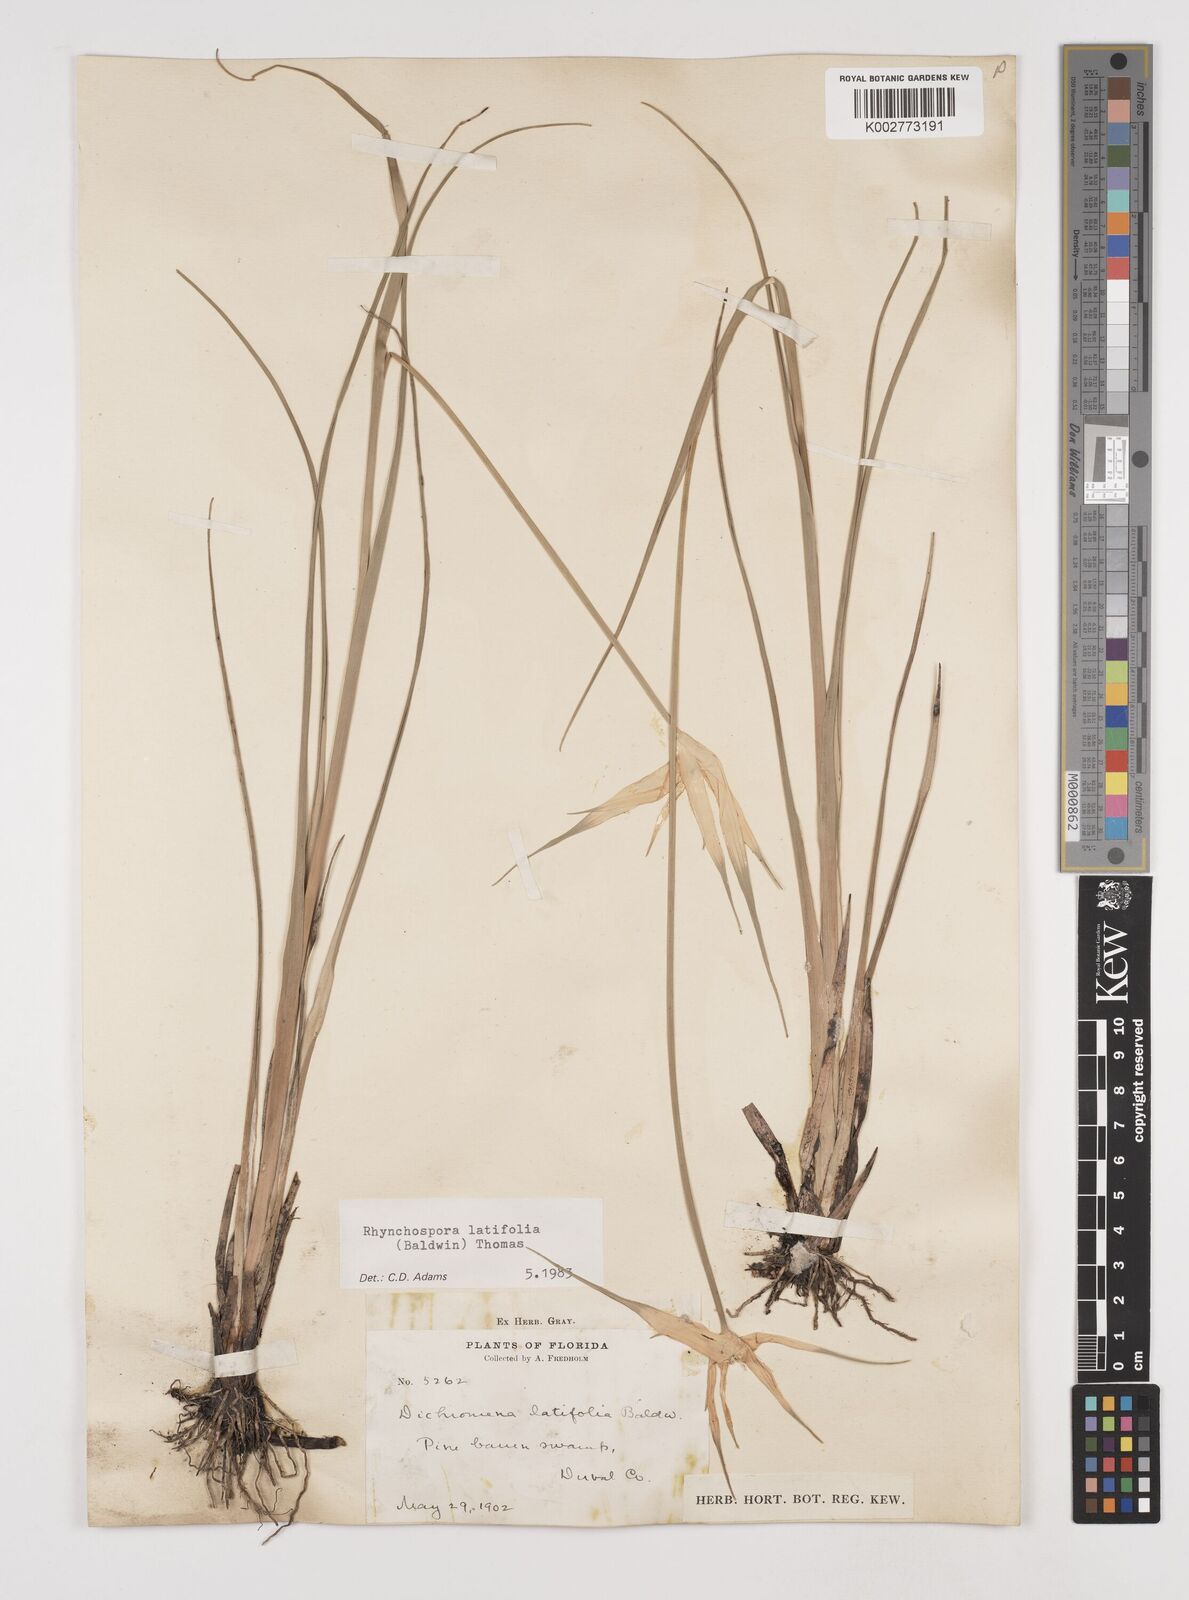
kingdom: Plantae
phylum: Tracheophyta
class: Liliopsida
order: Poales
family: Cyperaceae
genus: Rhynchospora
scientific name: Rhynchospora latifolia
